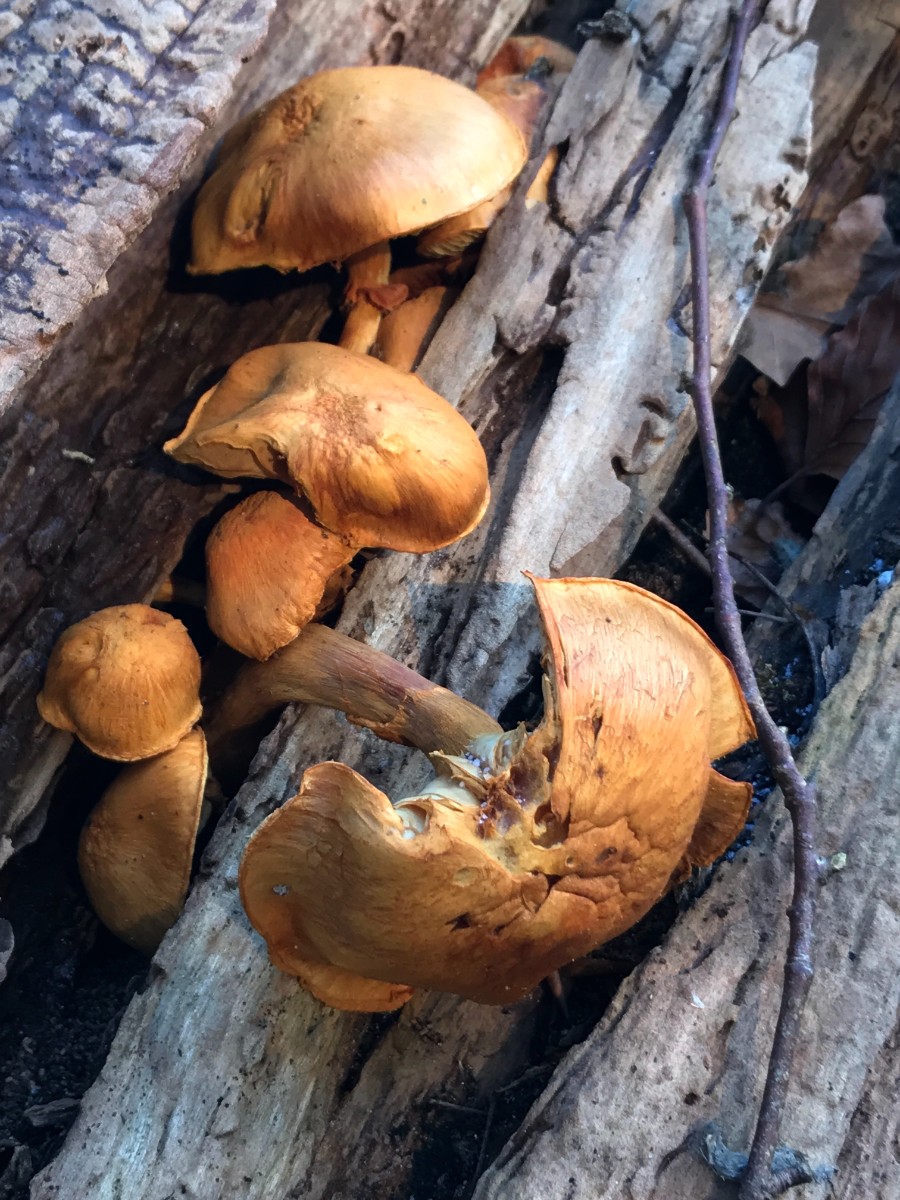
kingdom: Fungi
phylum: Basidiomycota
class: Agaricomycetes
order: Agaricales
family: Hymenogastraceae
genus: Gymnopilus
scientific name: Gymnopilus spectabilis
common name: fibret flammehat
